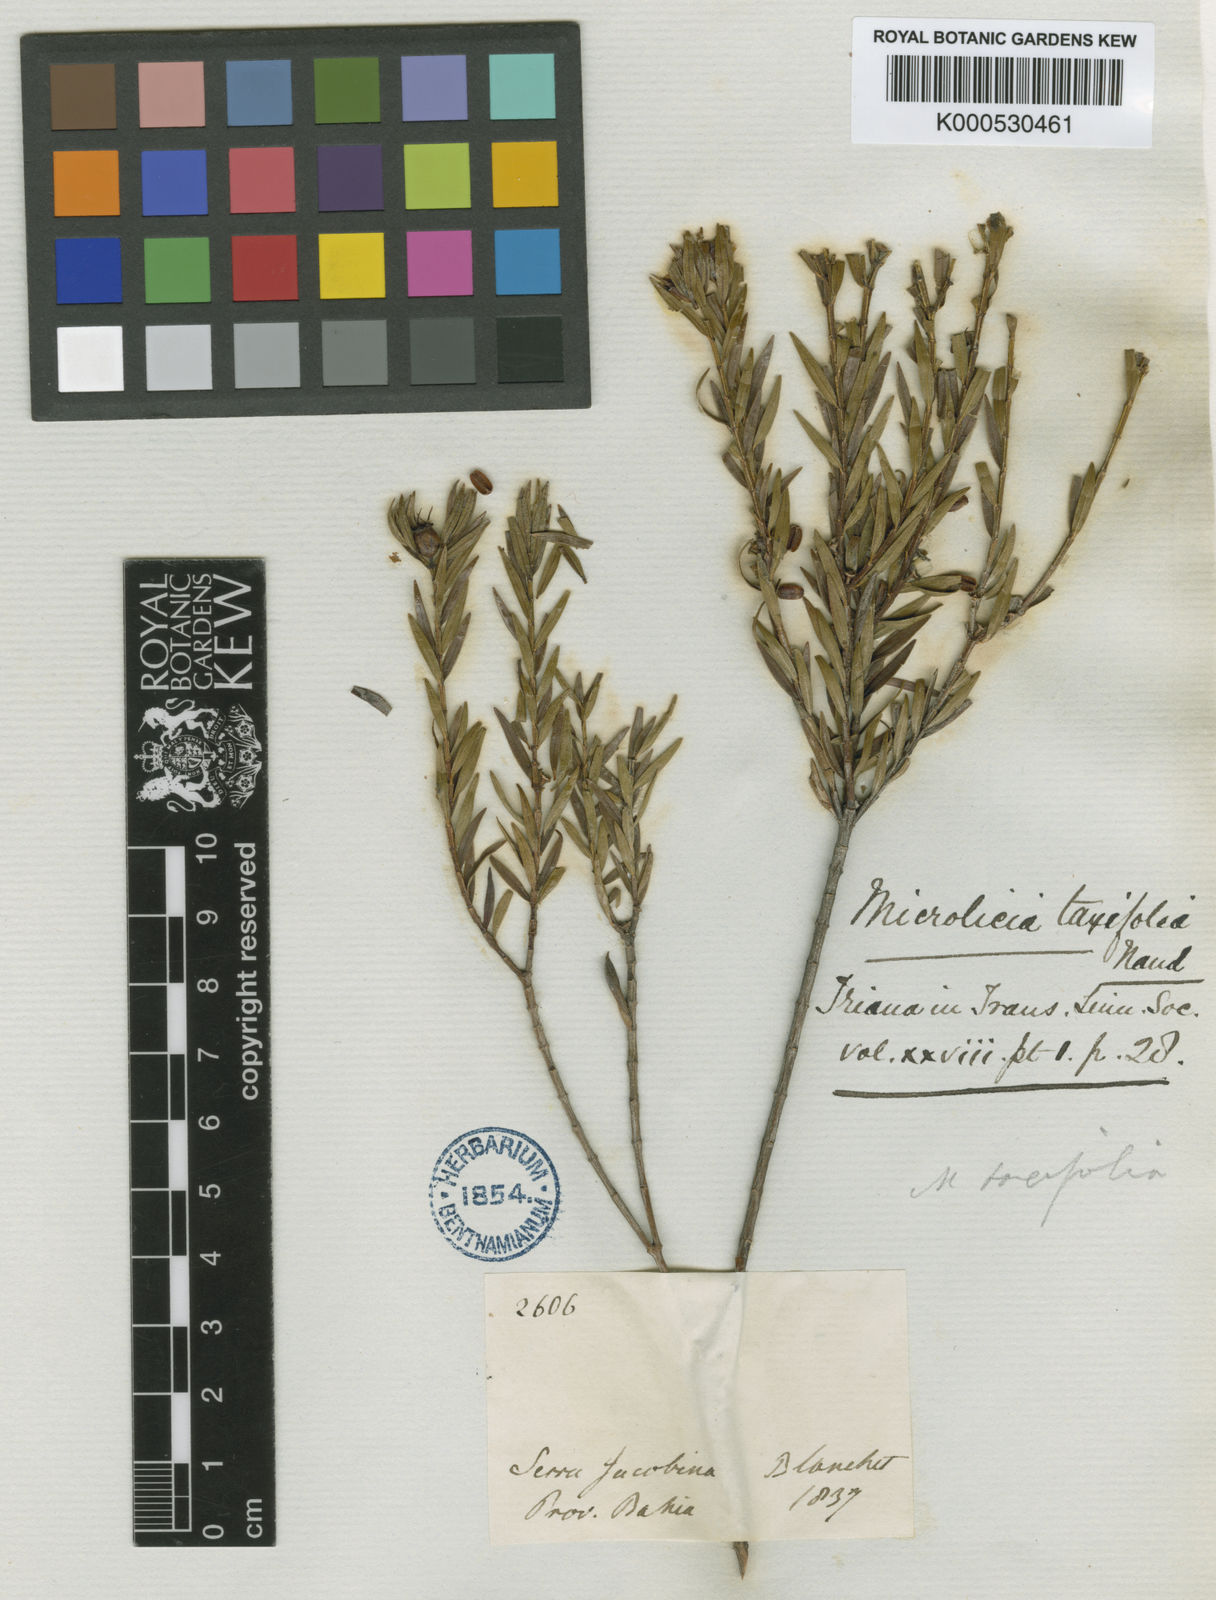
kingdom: Plantae
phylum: Tracheophyta
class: Magnoliopsida
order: Myrtales
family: Melastomataceae
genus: Microlicia
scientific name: Microlicia taxifolia
